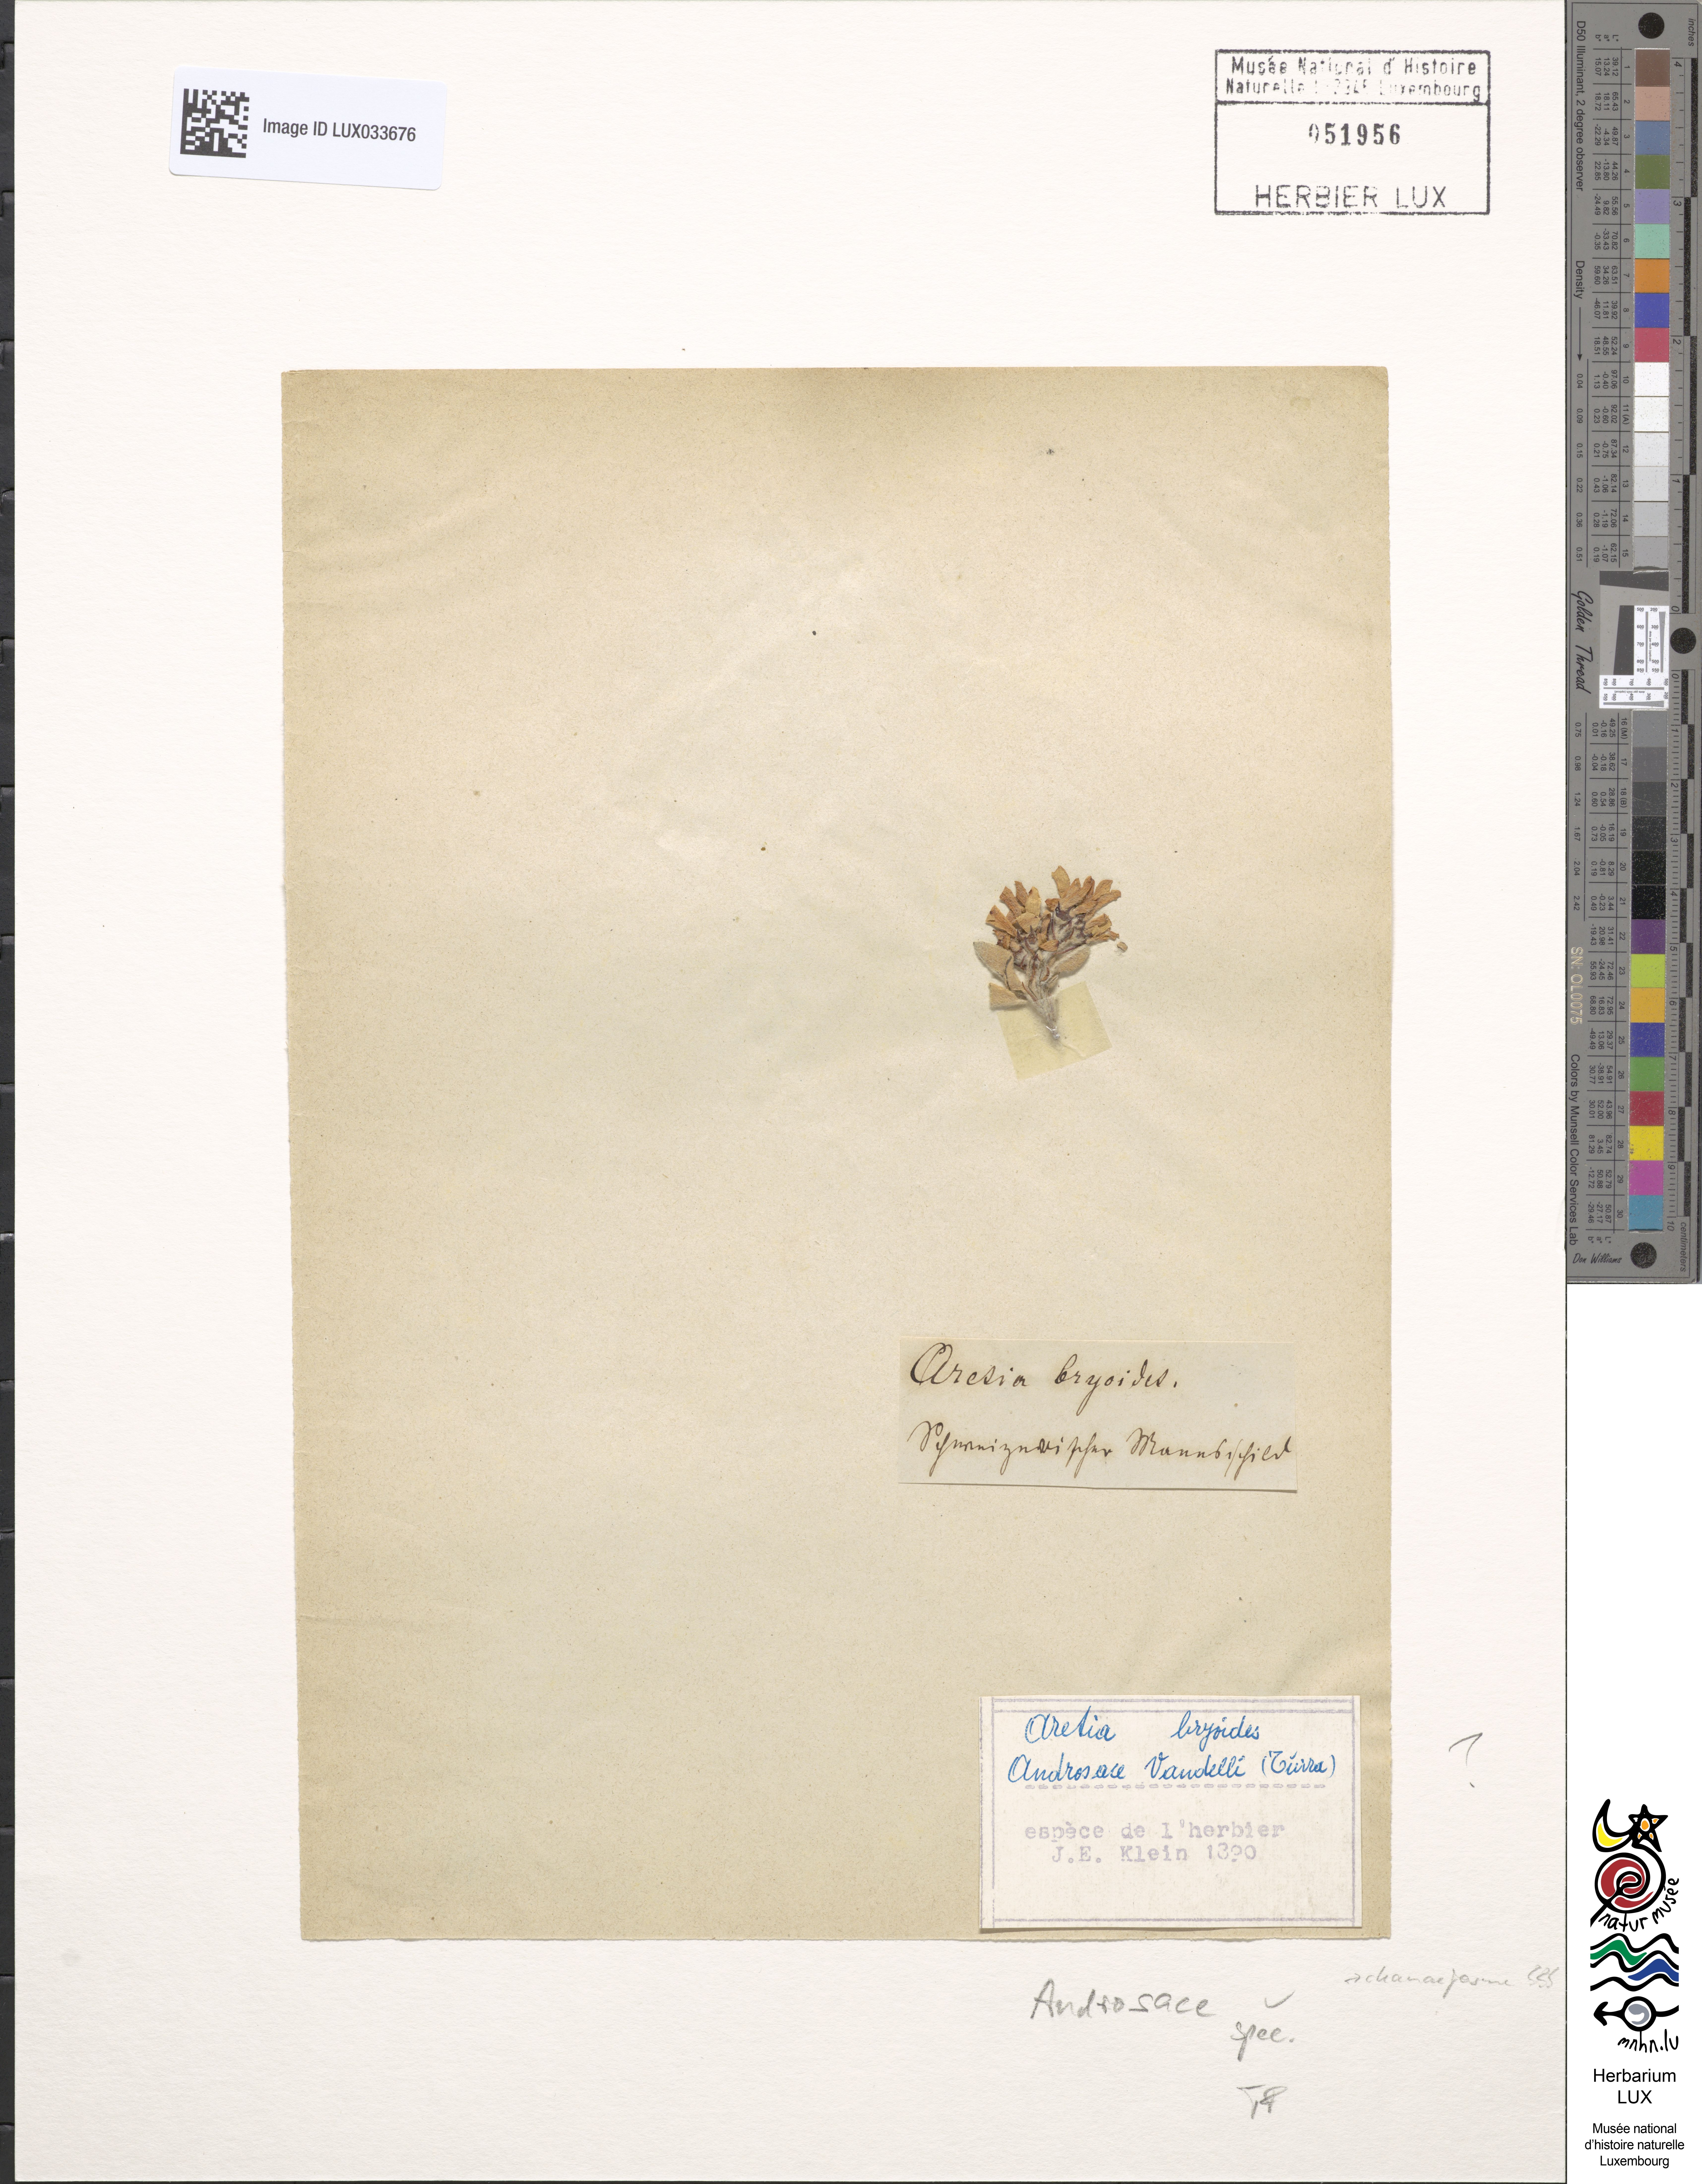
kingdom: Plantae
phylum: Tracheophyta
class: Magnoliopsida
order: Ericales
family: Primulaceae
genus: Androsace
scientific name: Androsace
